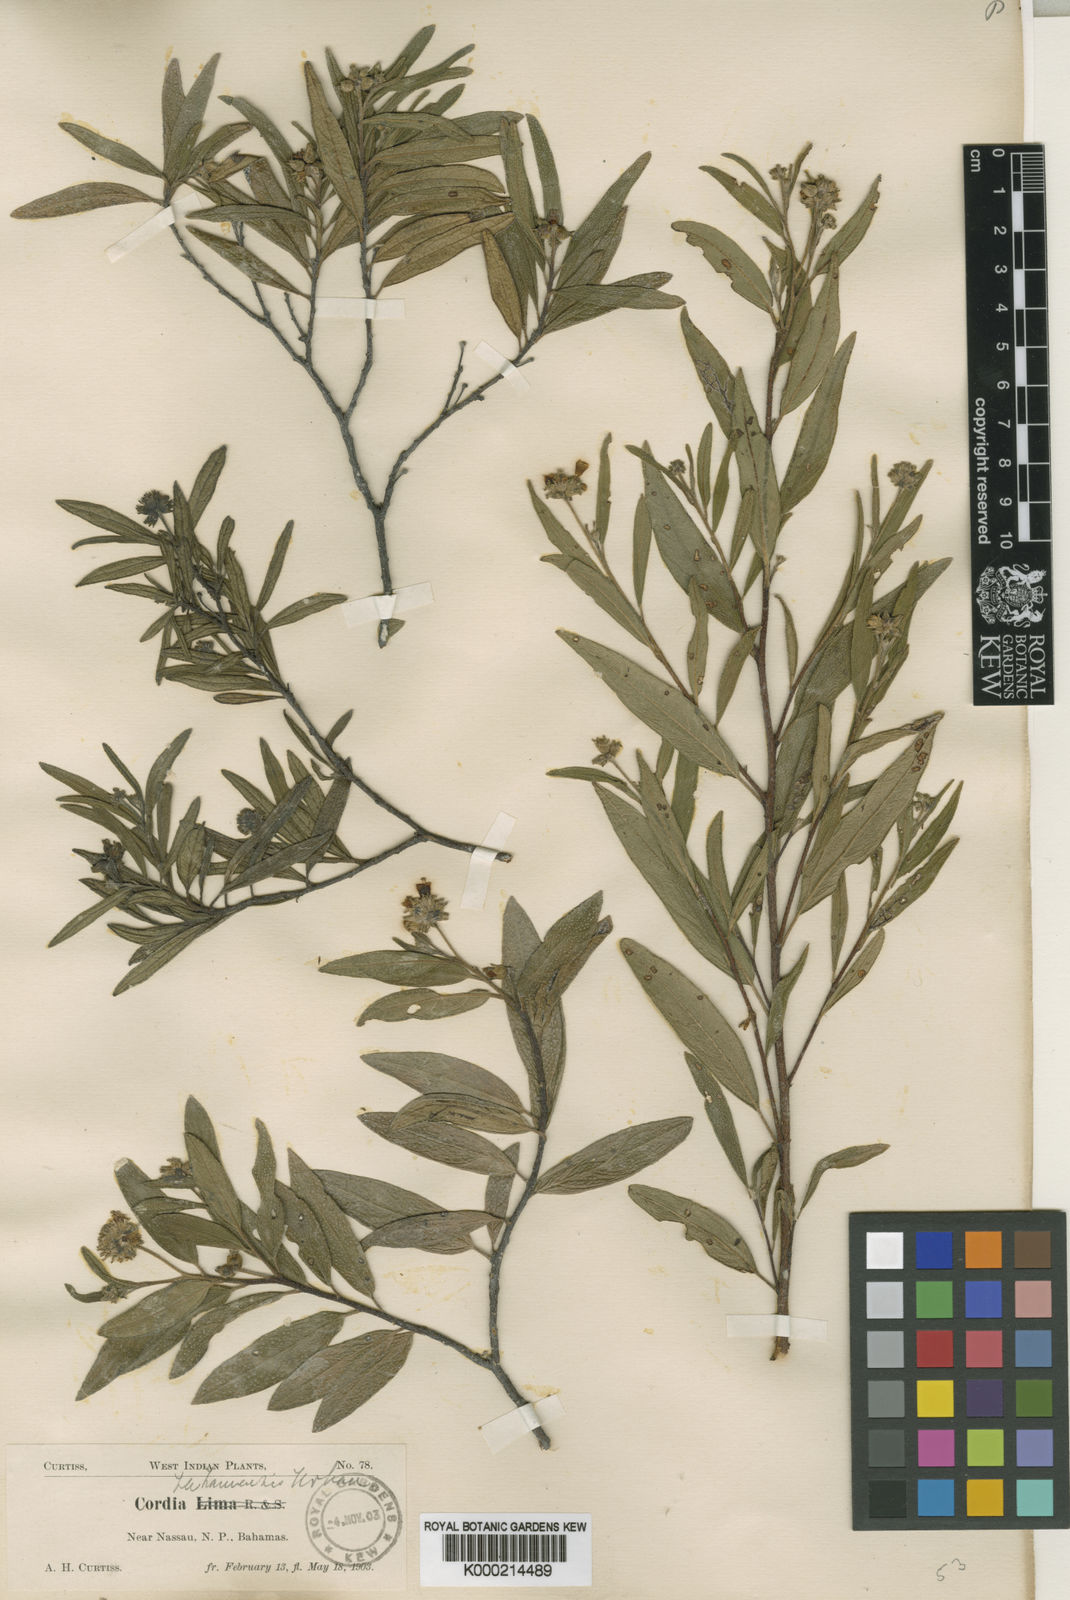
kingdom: Plantae
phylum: Tracheophyta
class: Magnoliopsida
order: Boraginales
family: Cordiaceae
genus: Varronia
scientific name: Varronia bahamensis
